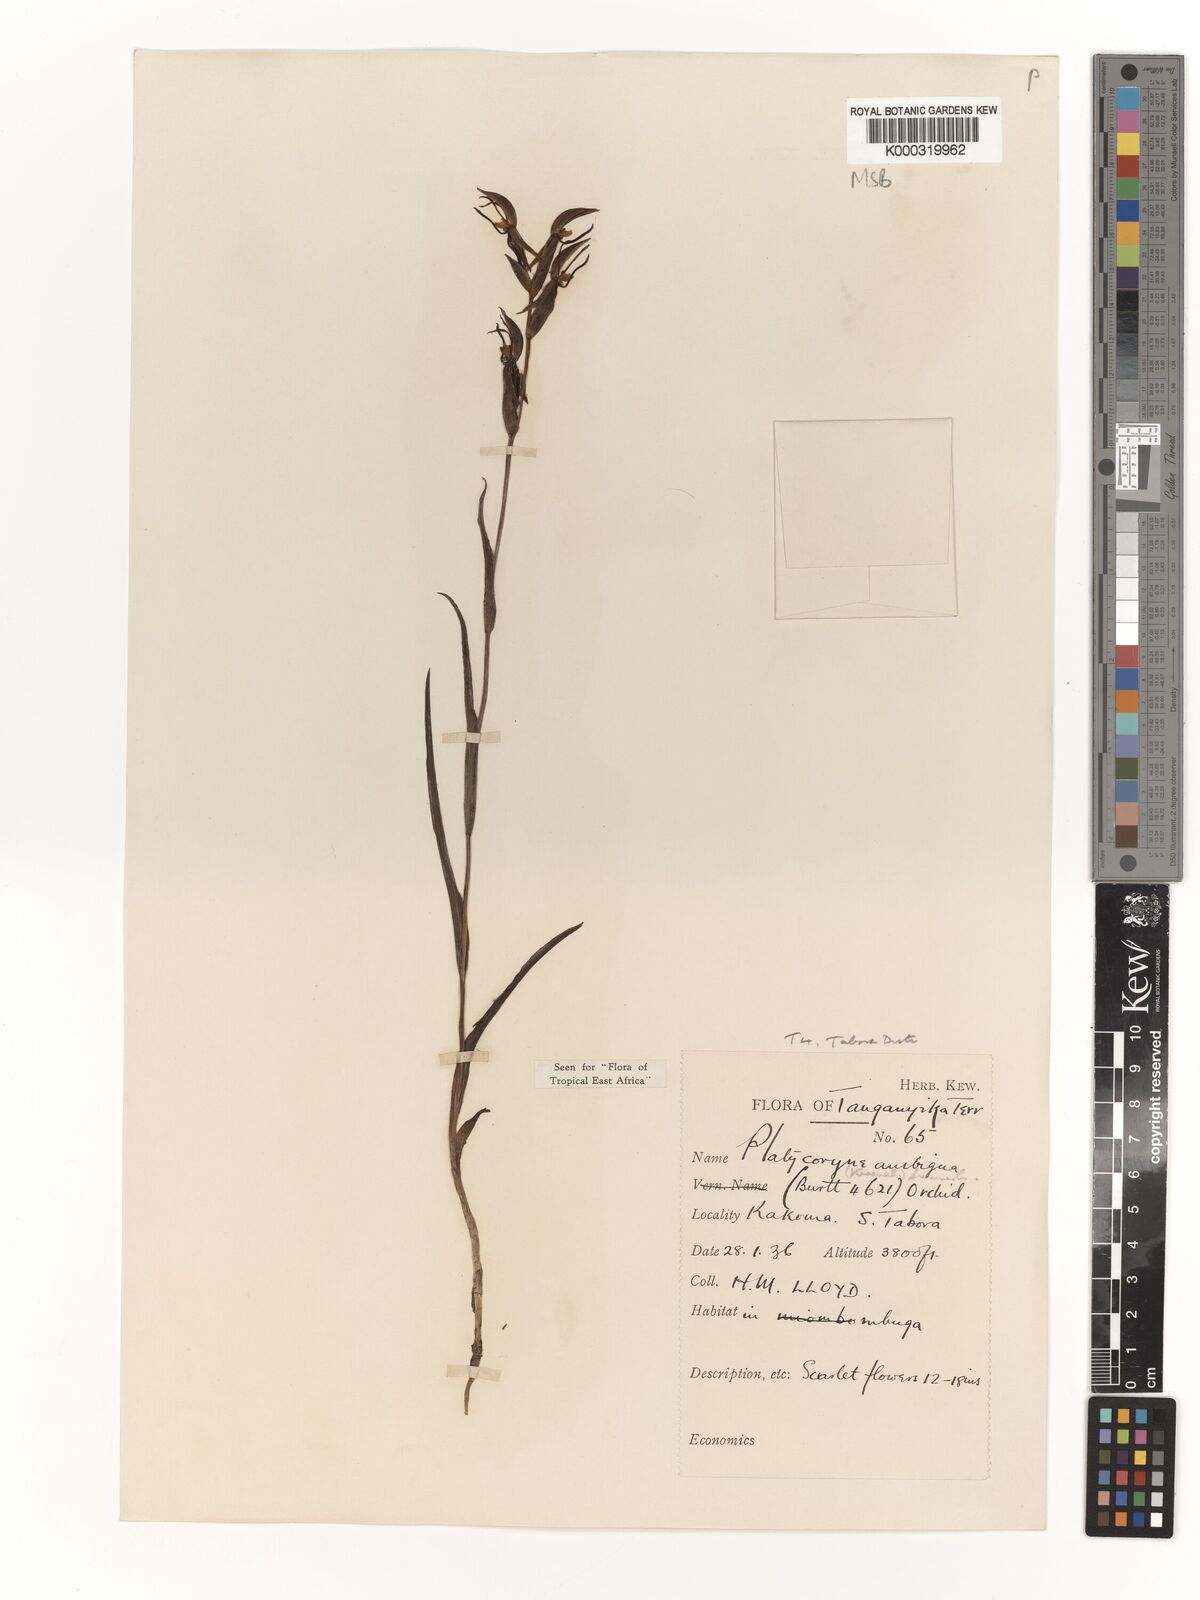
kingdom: Plantae
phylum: Tracheophyta
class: Liliopsida
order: Asparagales
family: Orchidaceae
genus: Platycoryne
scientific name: Platycoryne ambigua
